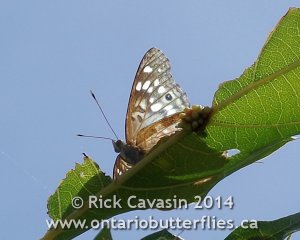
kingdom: Animalia
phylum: Arthropoda
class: Insecta
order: Lepidoptera
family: Nymphalidae
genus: Asterocampa
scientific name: Asterocampa celtis
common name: Hackberry Emperor
